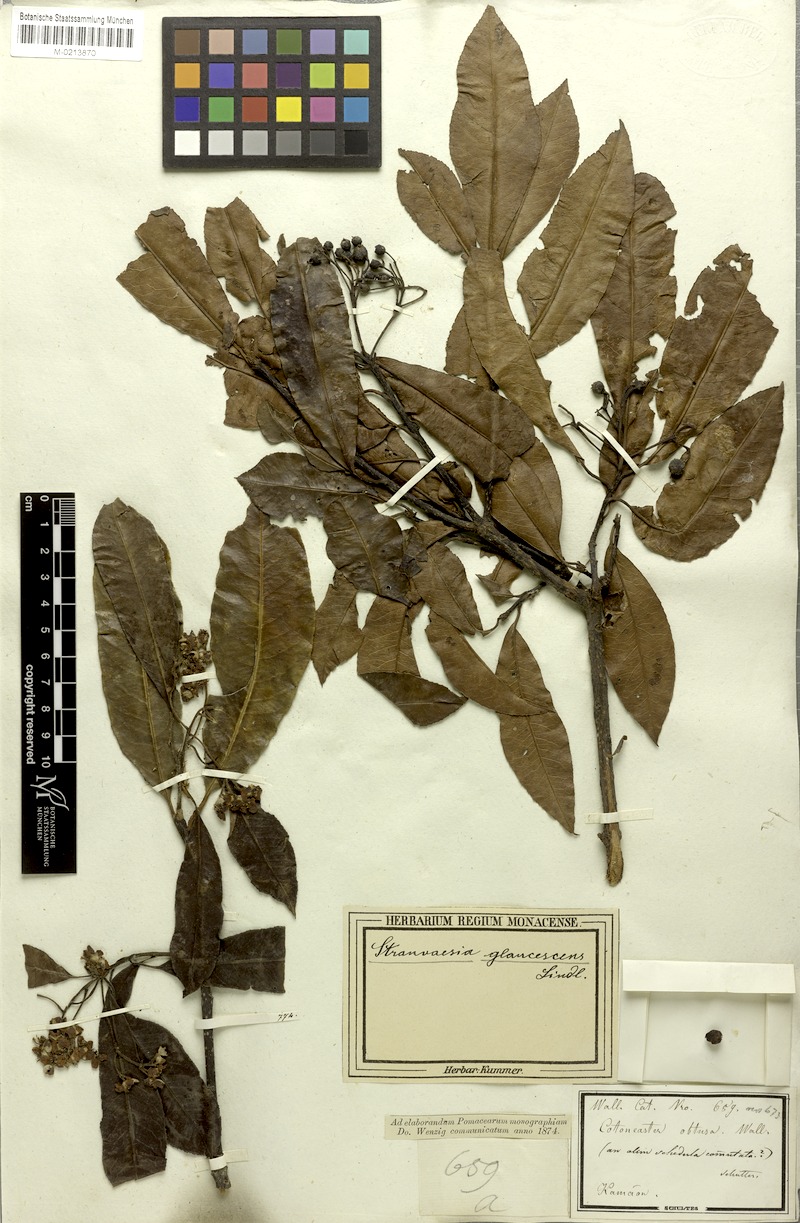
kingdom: Plantae
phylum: Tracheophyta
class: Magnoliopsida
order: Rosales
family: Rosaceae
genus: Stranvaesia
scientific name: Stranvaesia nussia
